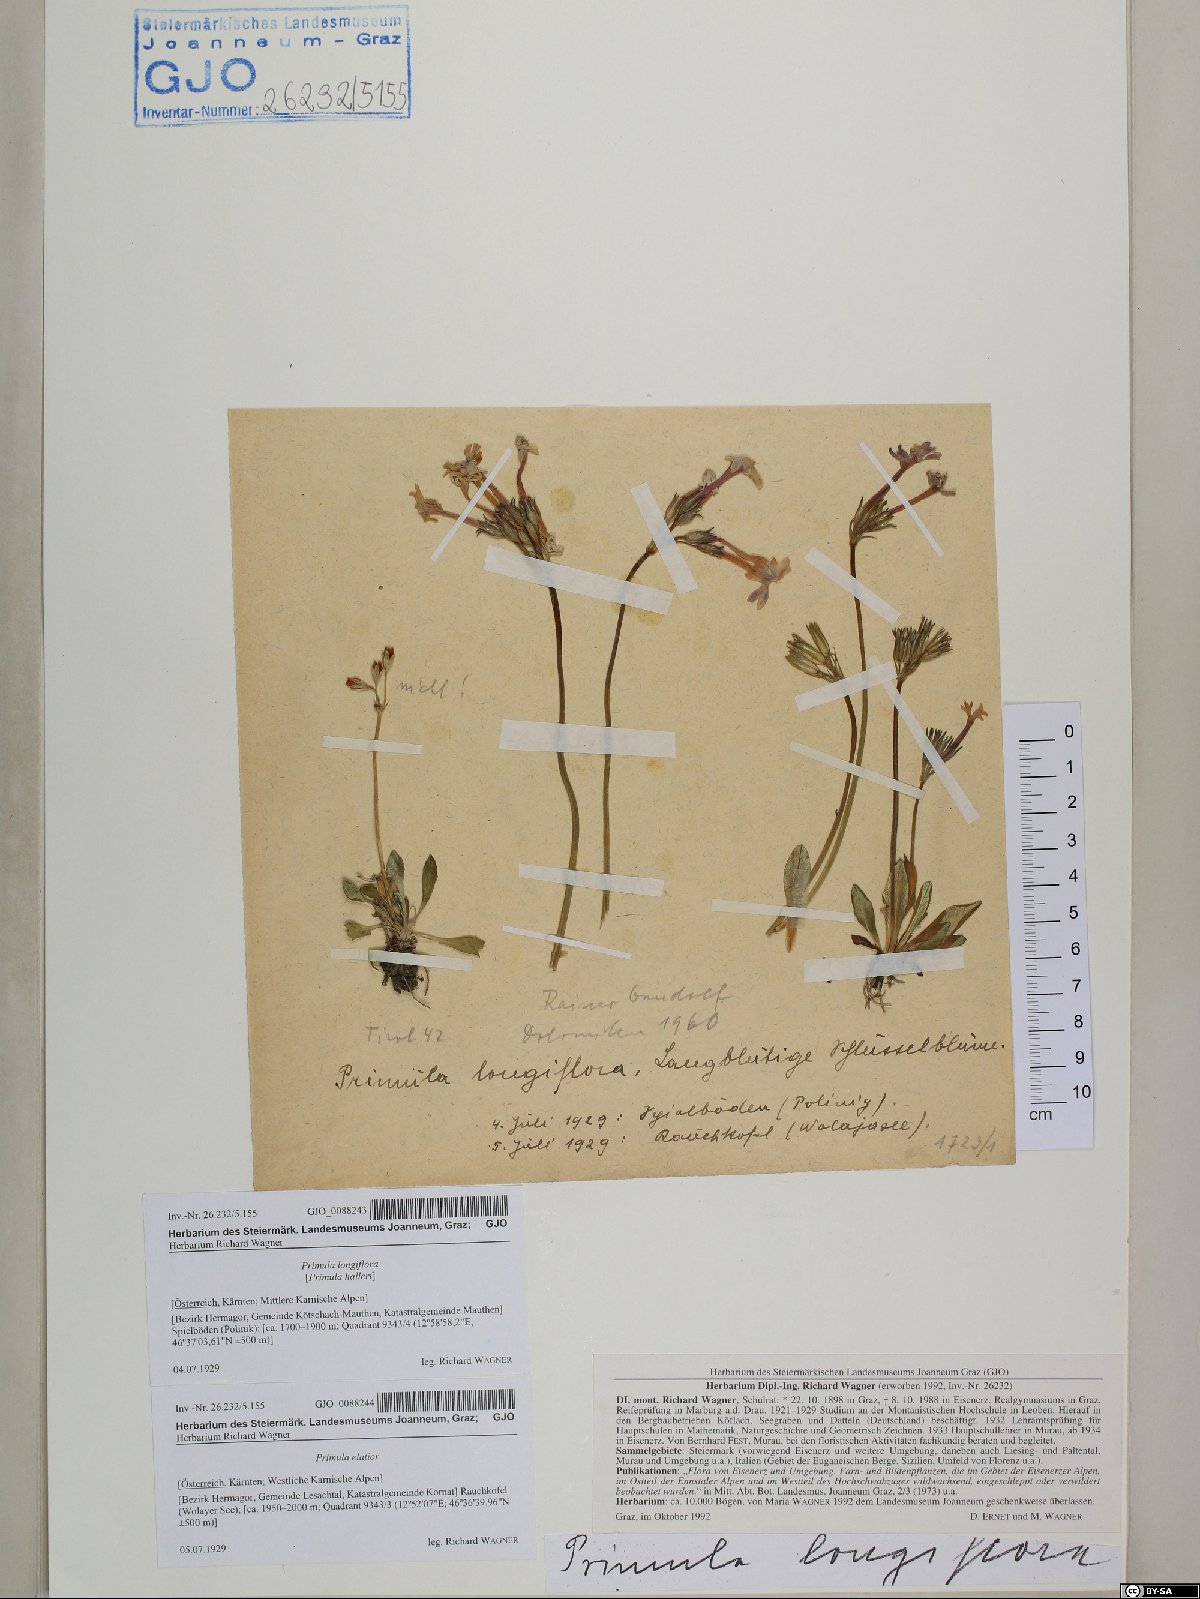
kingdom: Plantae
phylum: Tracheophyta
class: Magnoliopsida
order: Ericales
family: Primulaceae
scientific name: Primulaceae
